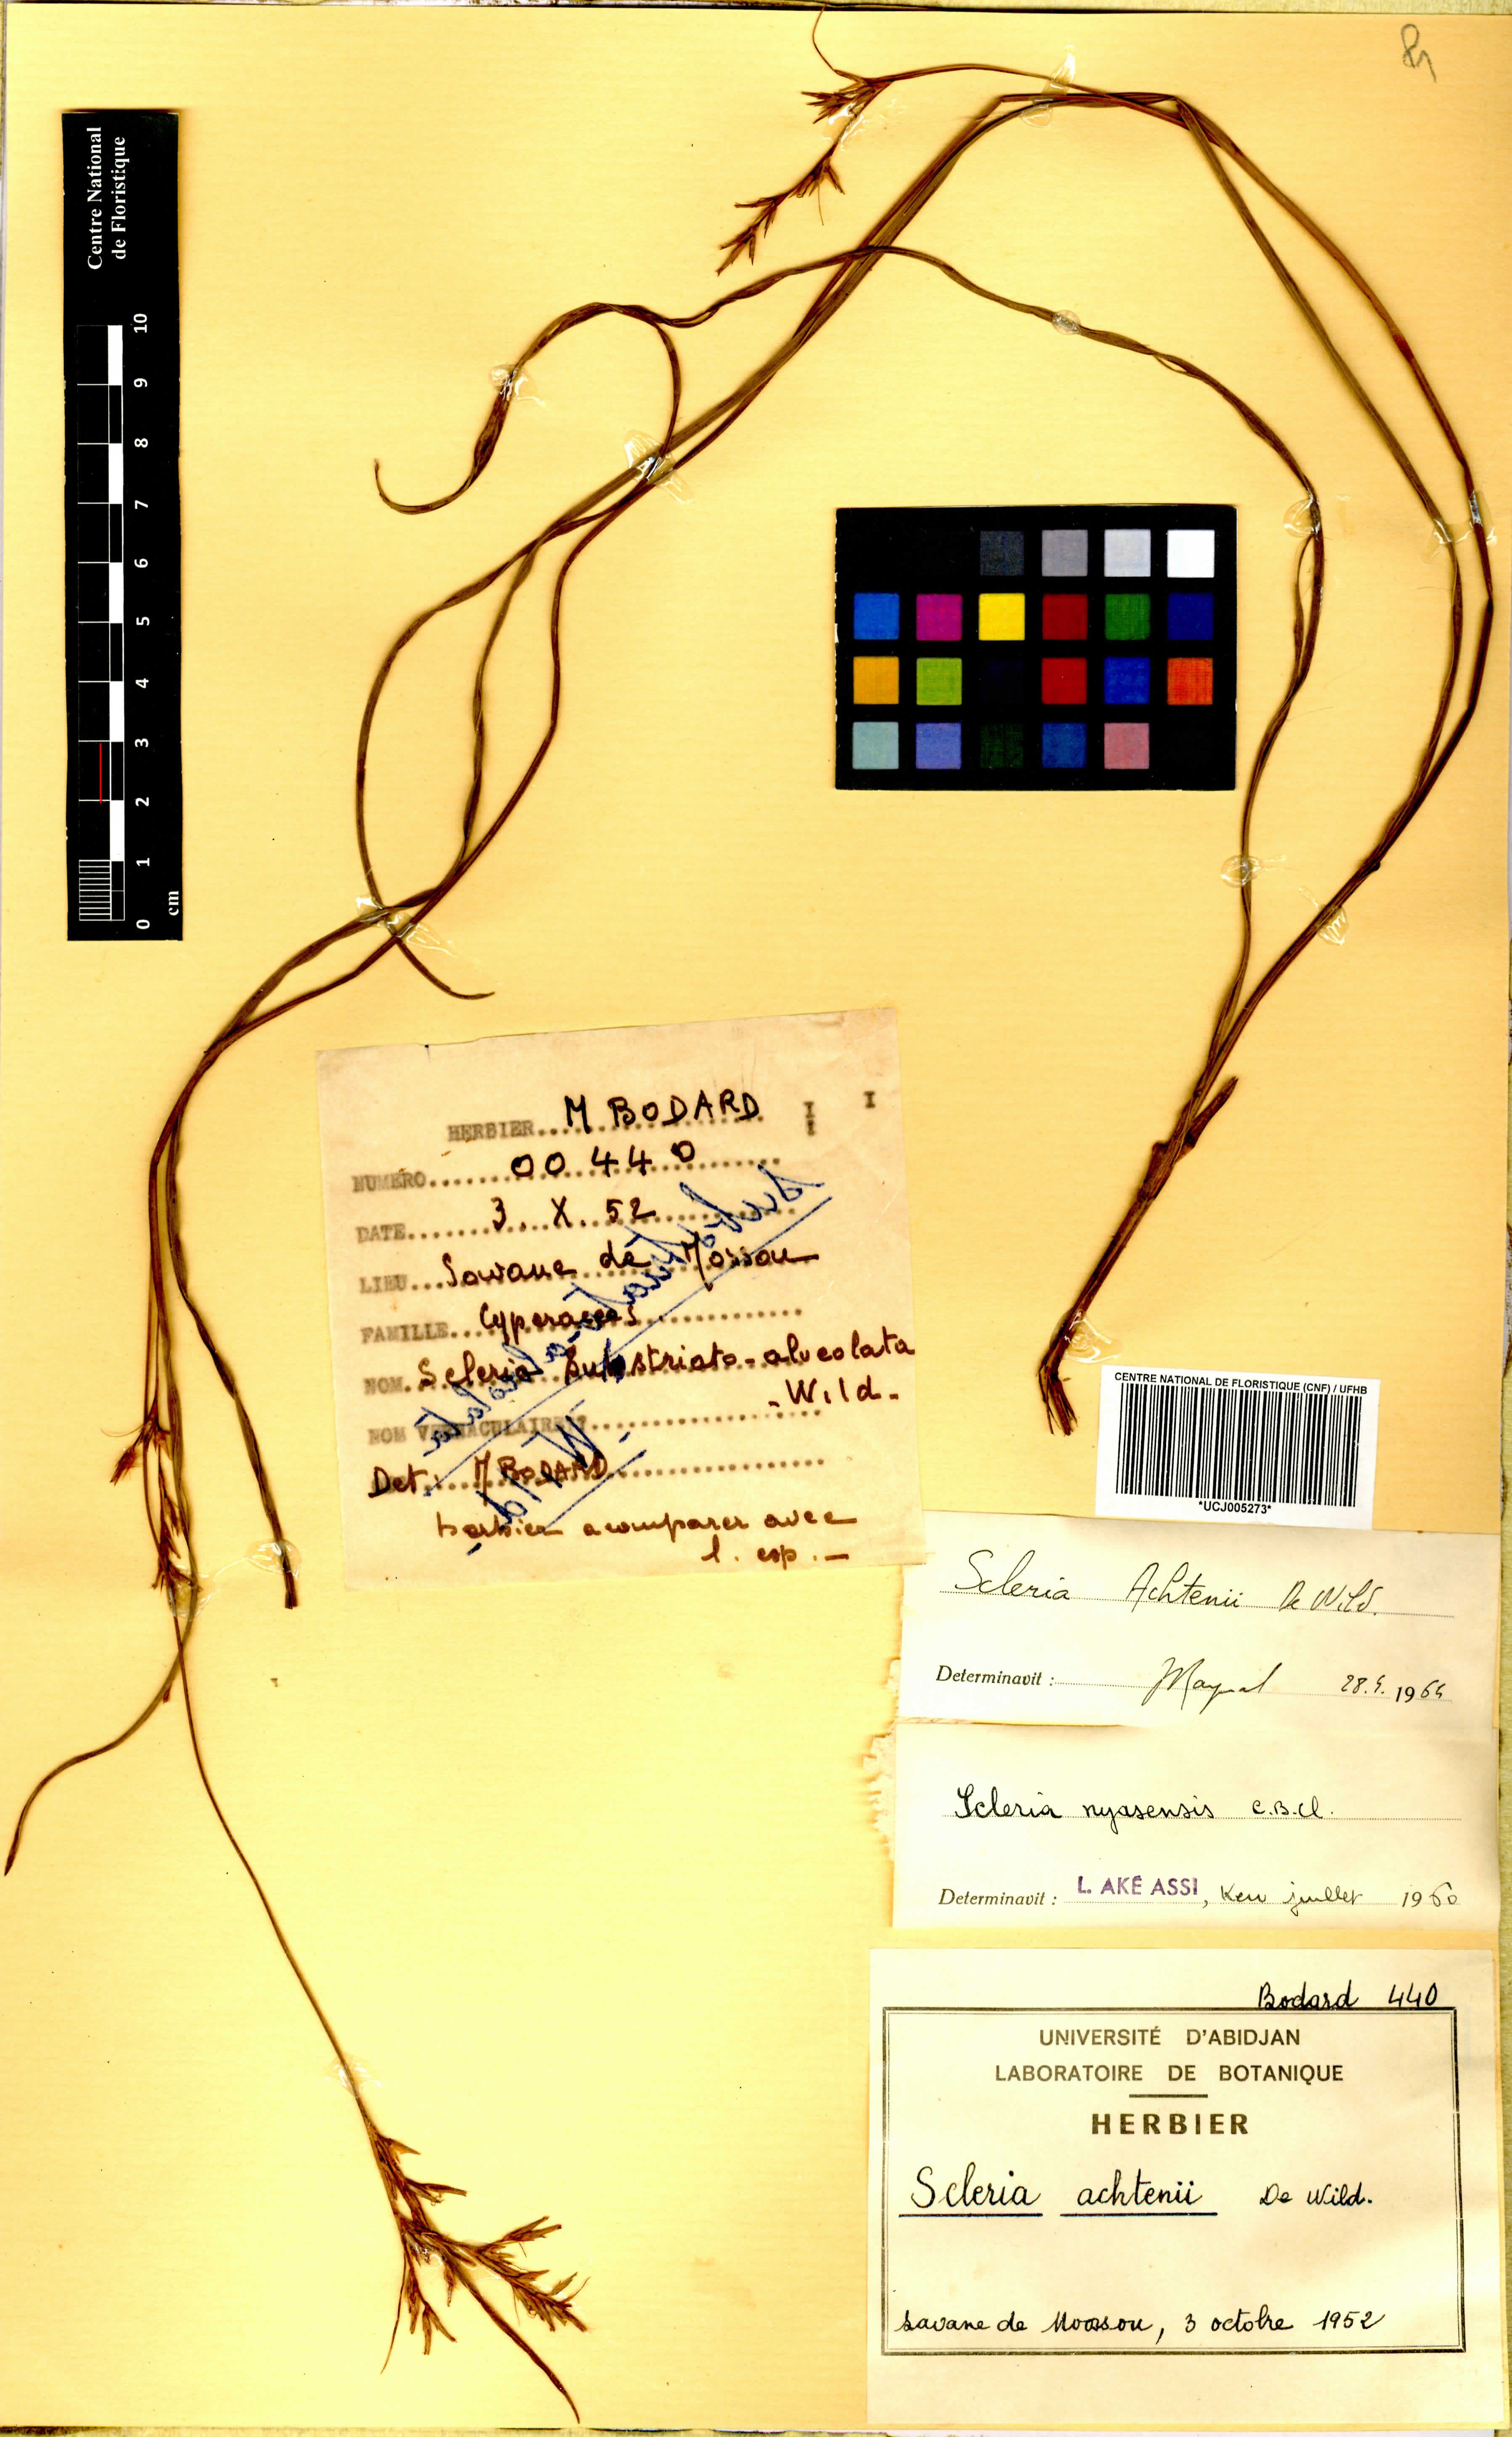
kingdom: Plantae
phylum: Tracheophyta
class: Liliopsida
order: Poales
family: Cyperaceae
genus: Scleria
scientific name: Scleria achtenii
